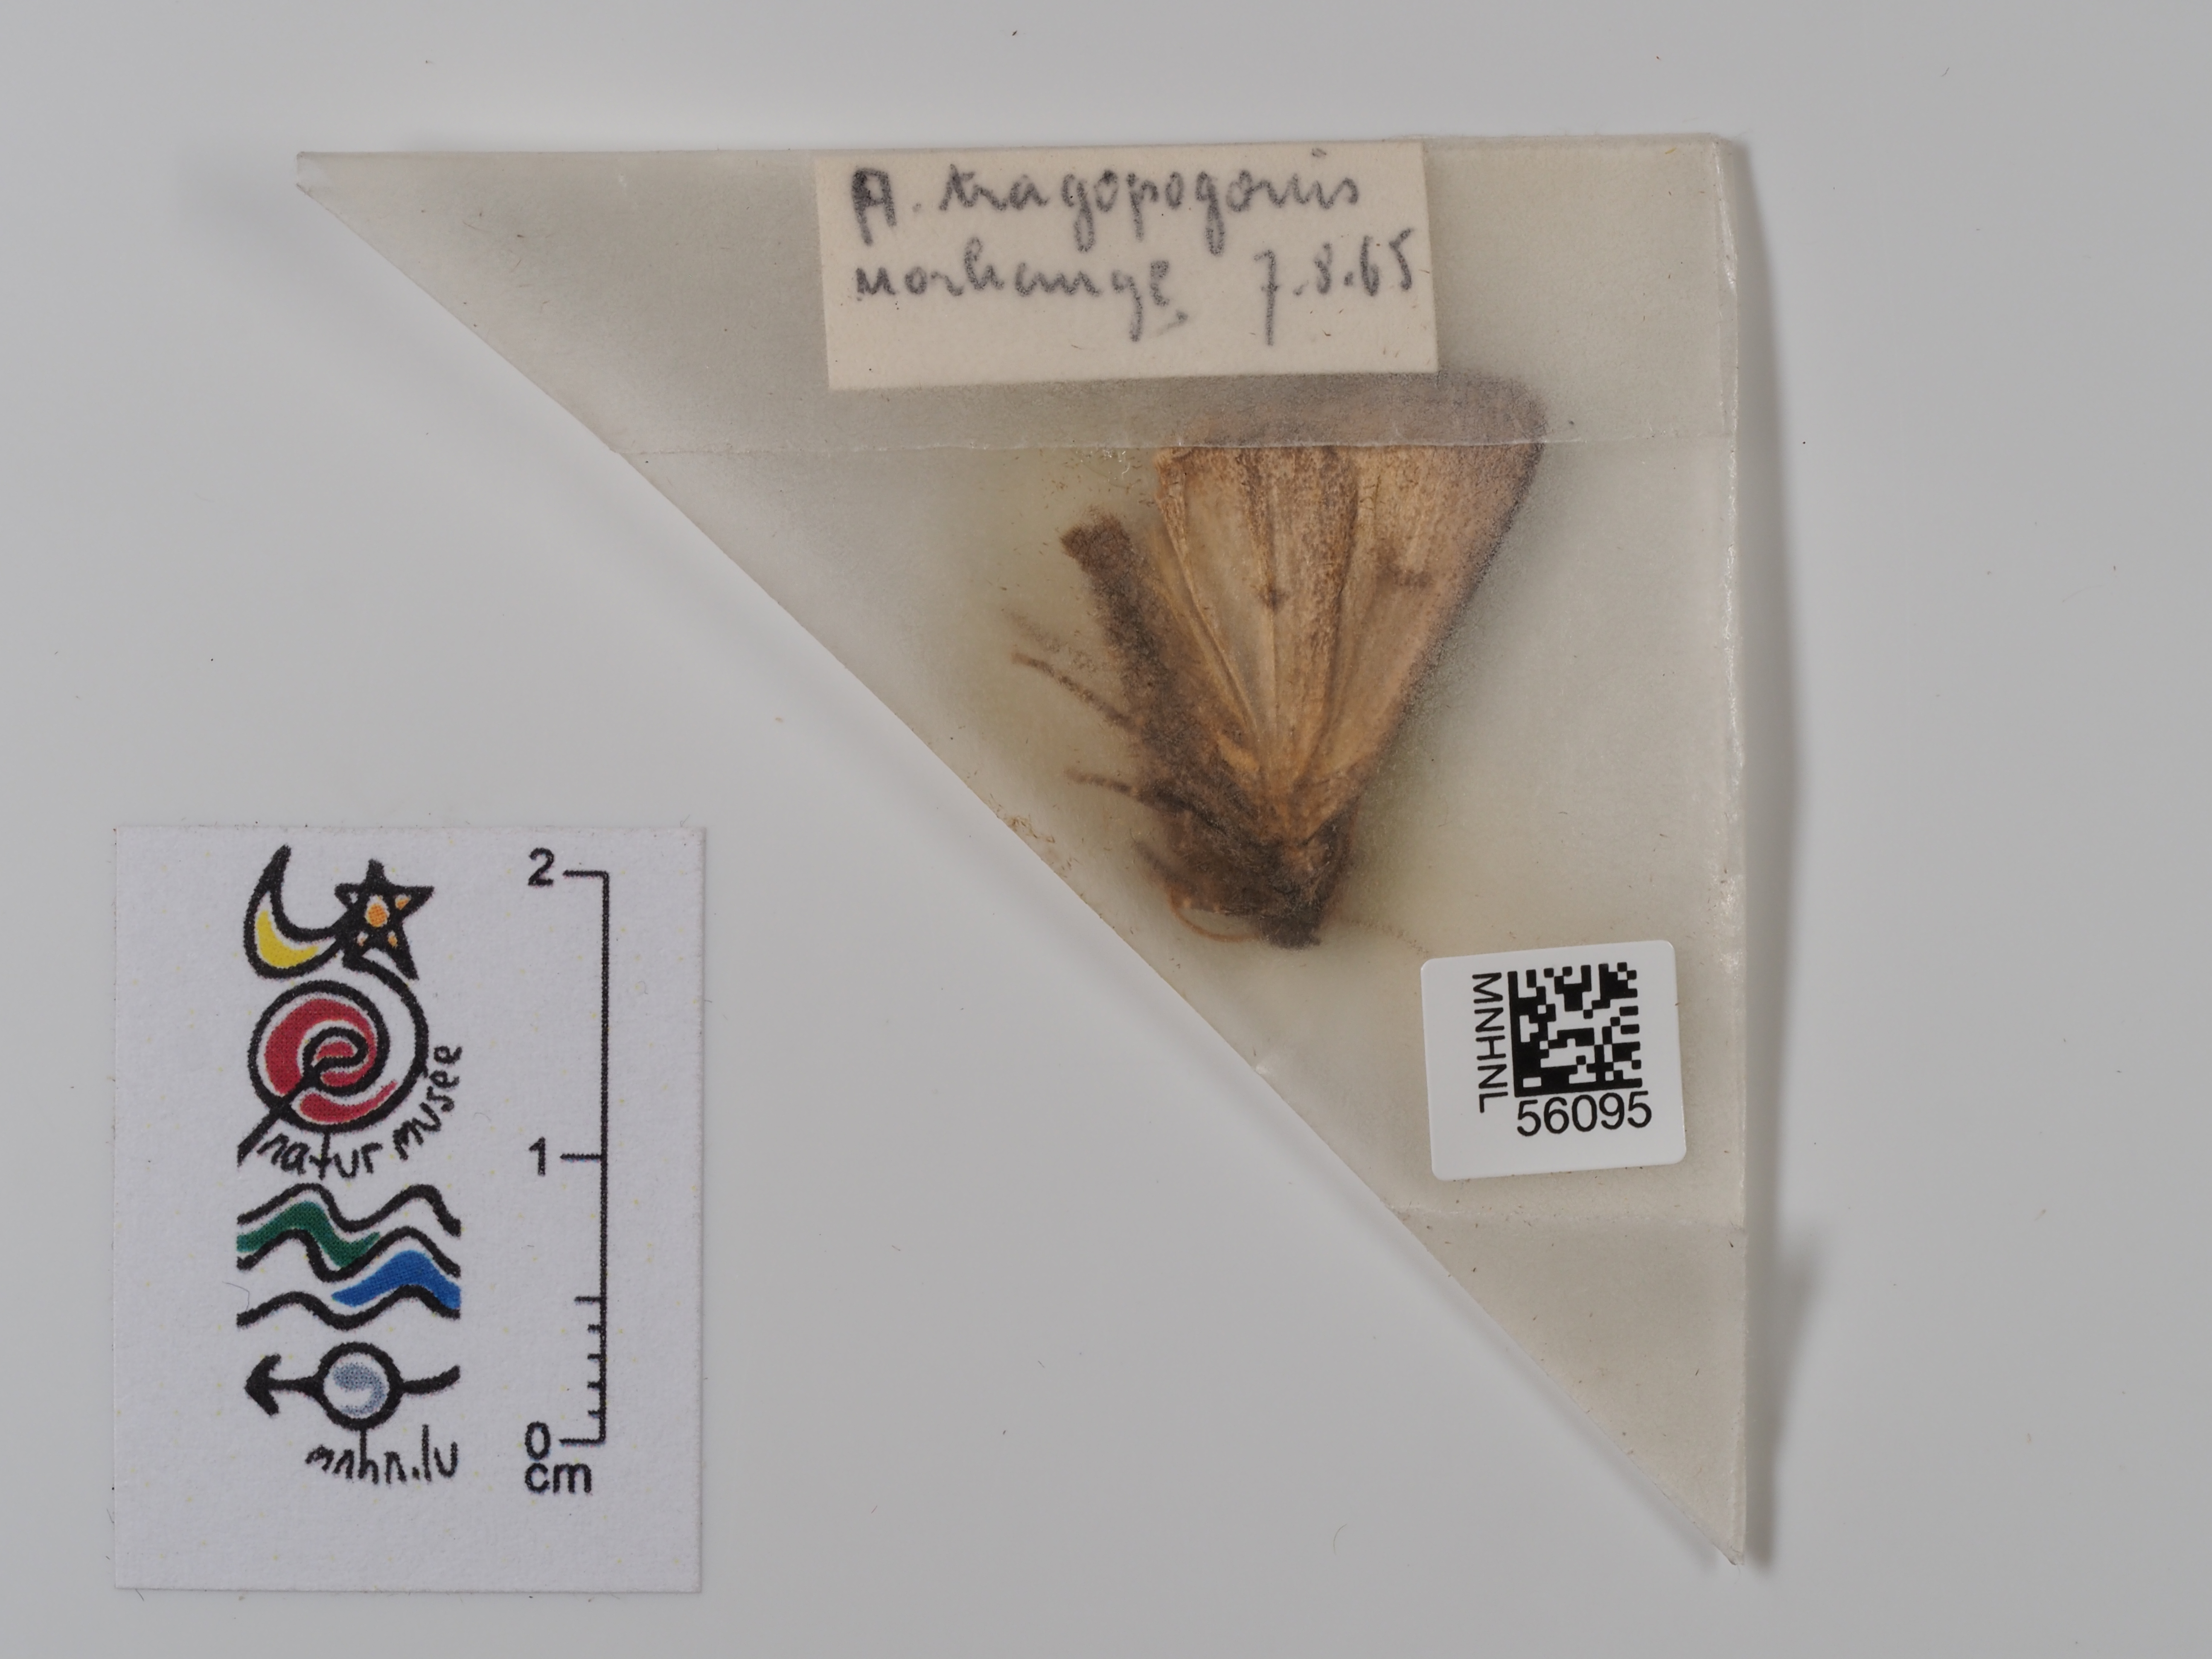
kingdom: Animalia
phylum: Arthropoda
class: Insecta
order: Lepidoptera
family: Noctuidae
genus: Amphipyra
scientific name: Amphipyra tragopoginis
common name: Mouse moth
